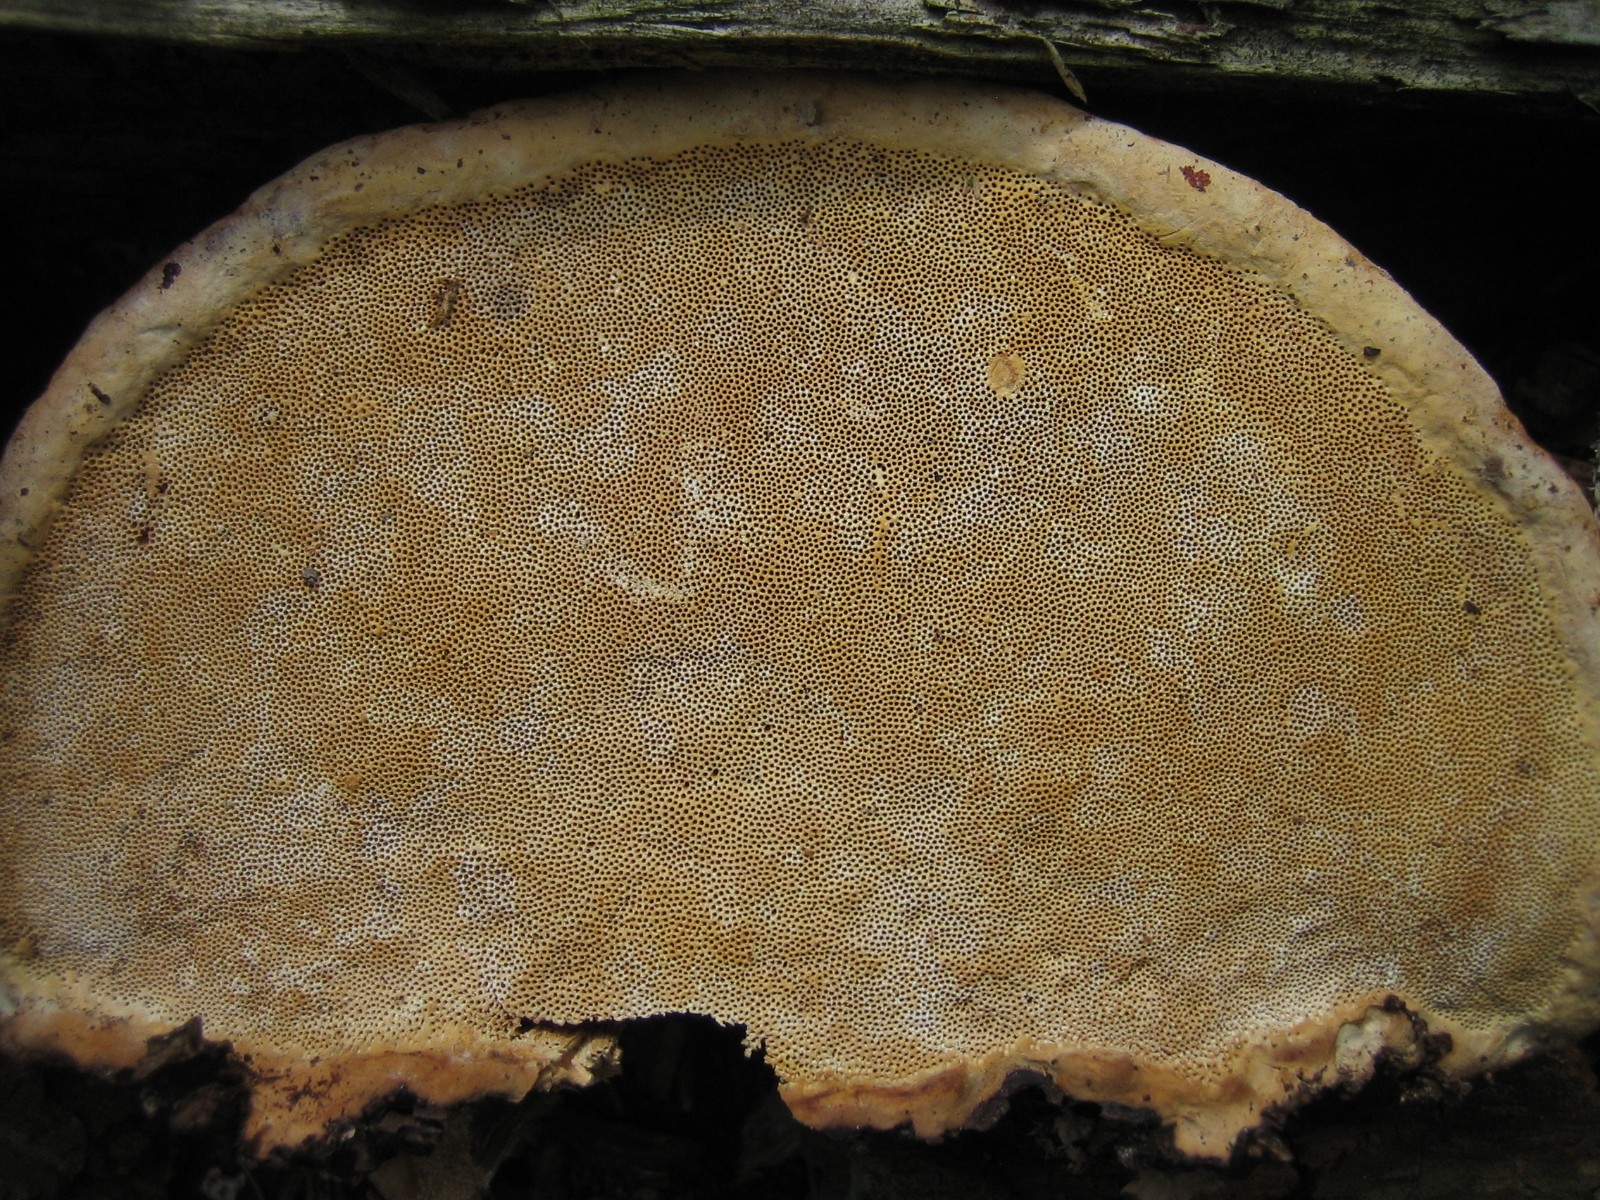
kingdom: Fungi
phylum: Basidiomycota
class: Agaricomycetes
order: Polyporales
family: Fomitopsidaceae
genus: Fomitopsis
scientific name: Fomitopsis pinicola
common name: randbæltet hovporesvamp
